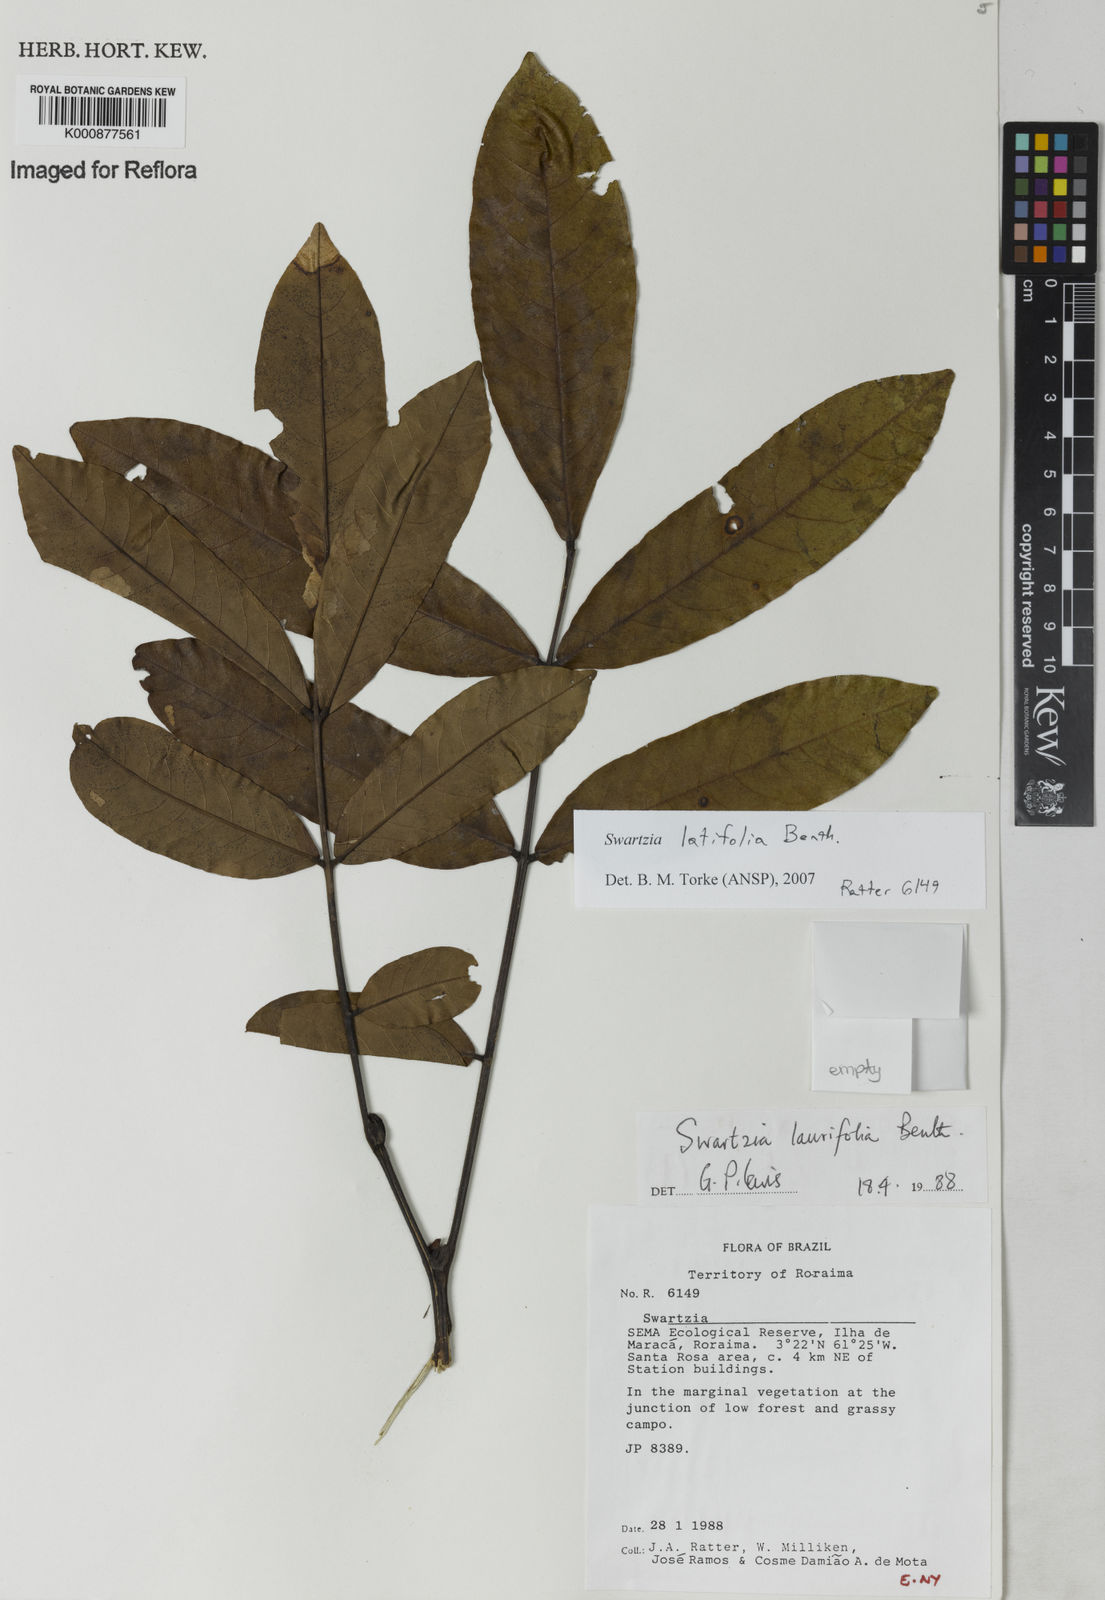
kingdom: Plantae
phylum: Tracheophyta
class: Magnoliopsida
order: Fabales
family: Fabaceae
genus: Swartzia
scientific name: Swartzia latifolia
